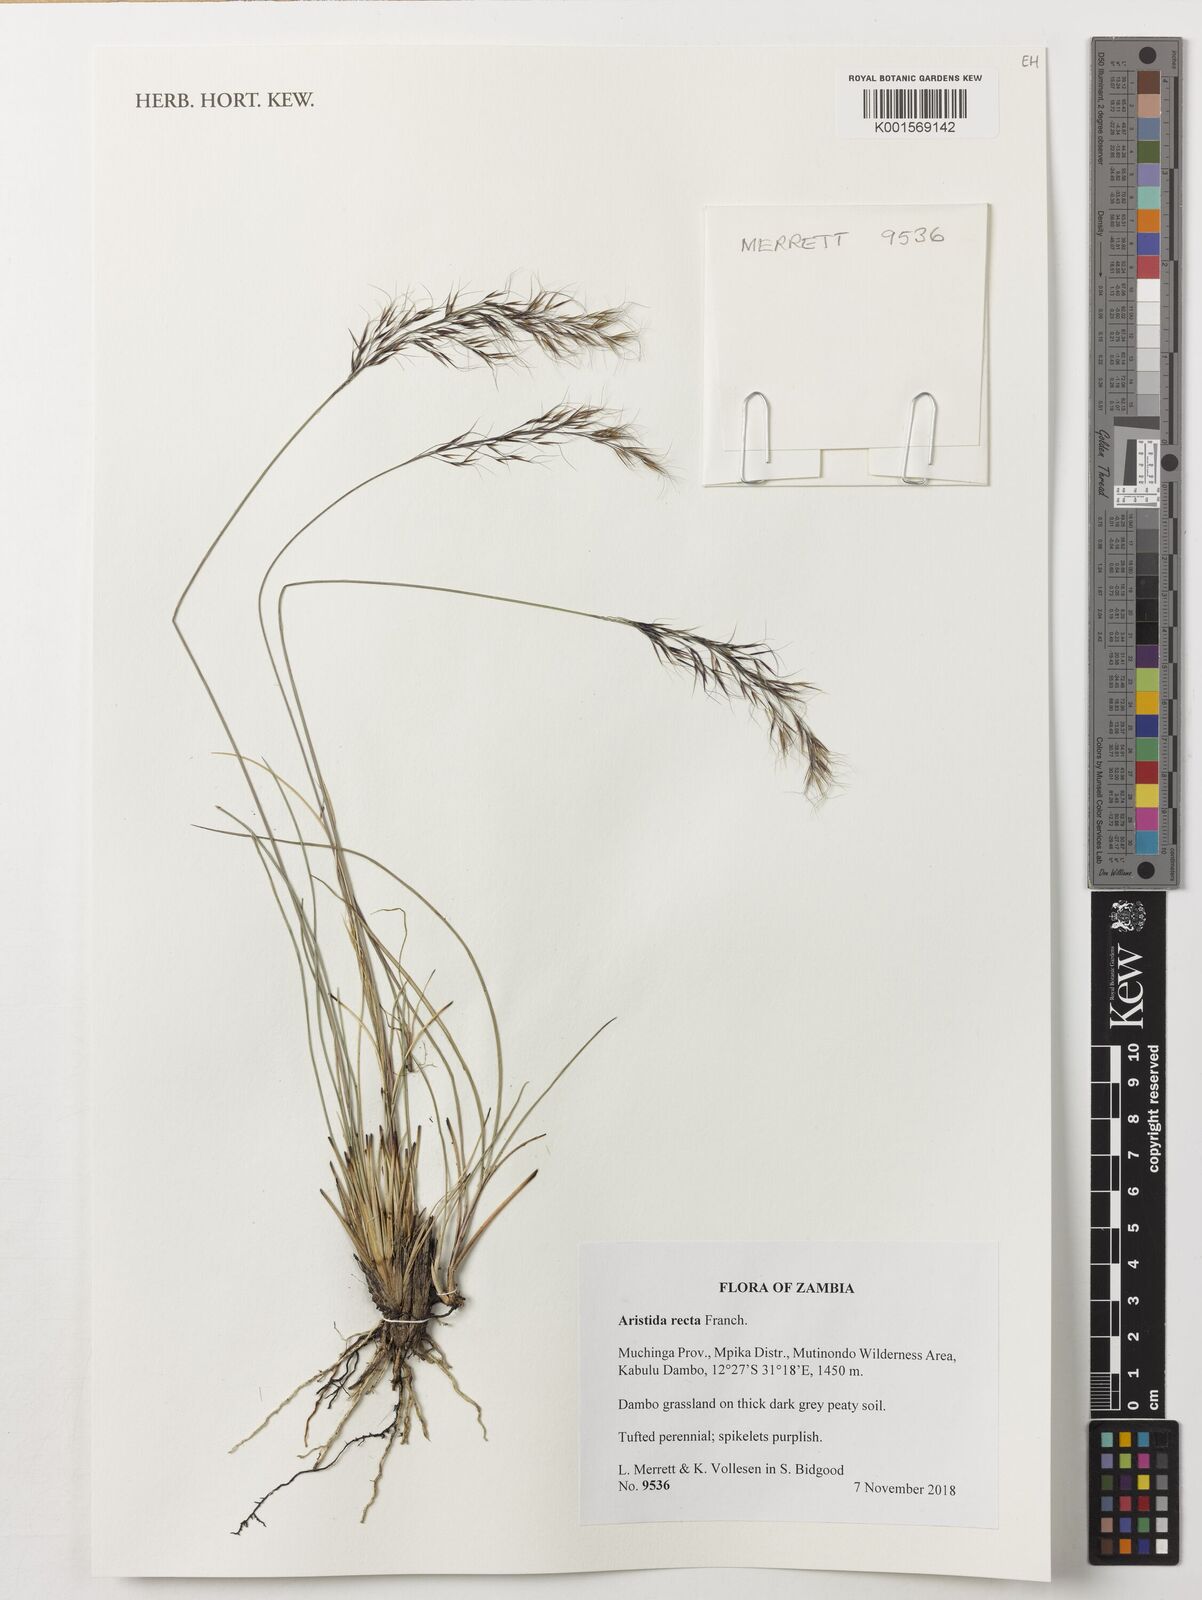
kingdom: Plantae
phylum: Tracheophyta
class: Liliopsida
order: Poales
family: Poaceae
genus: Aristida
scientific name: Aristida recta
